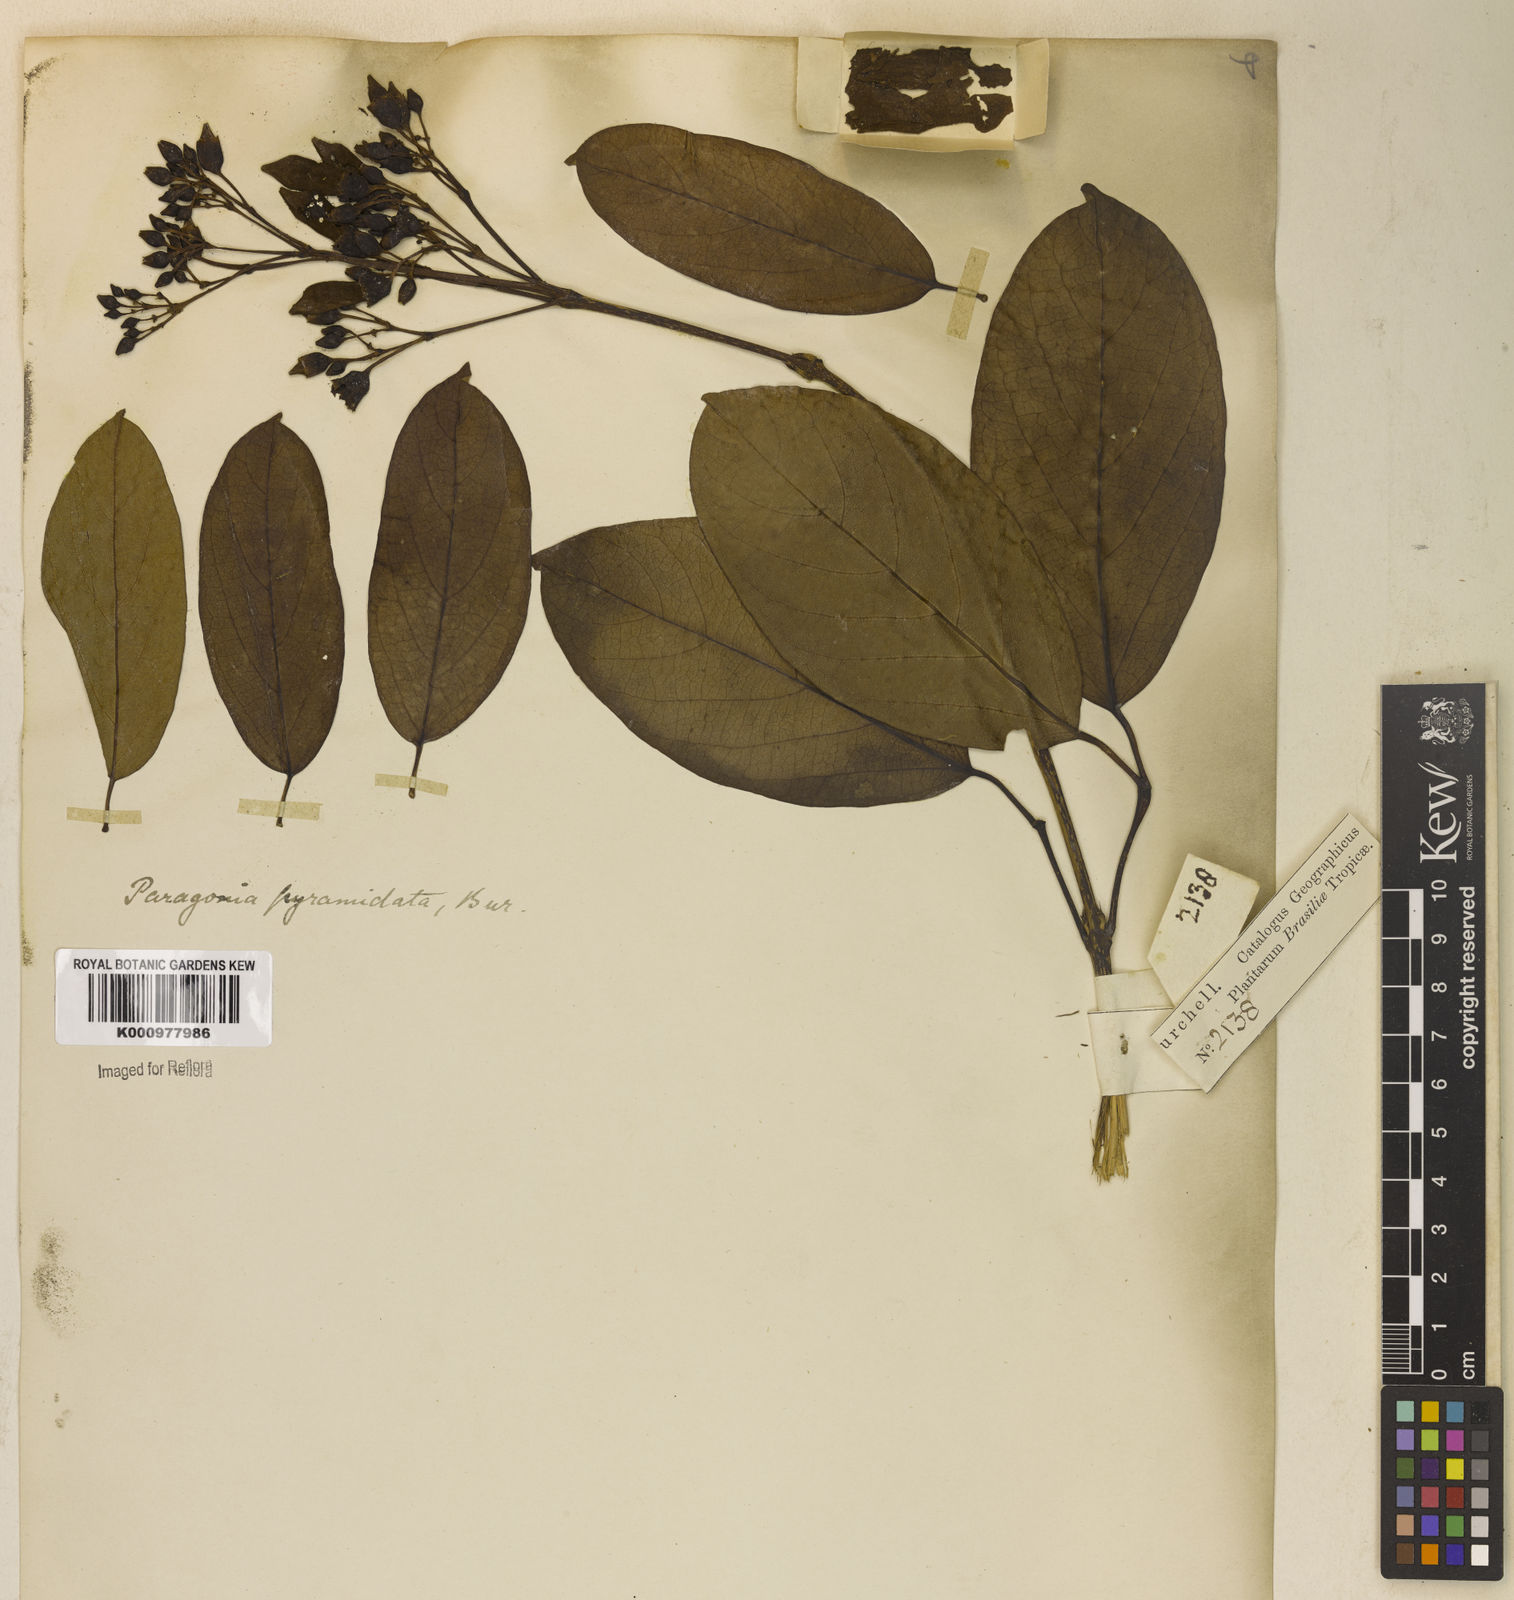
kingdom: Plantae
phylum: Tracheophyta
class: Magnoliopsida
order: Lamiales
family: Bignoniaceae
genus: Tanaecium
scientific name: Tanaecium pyramidatum
